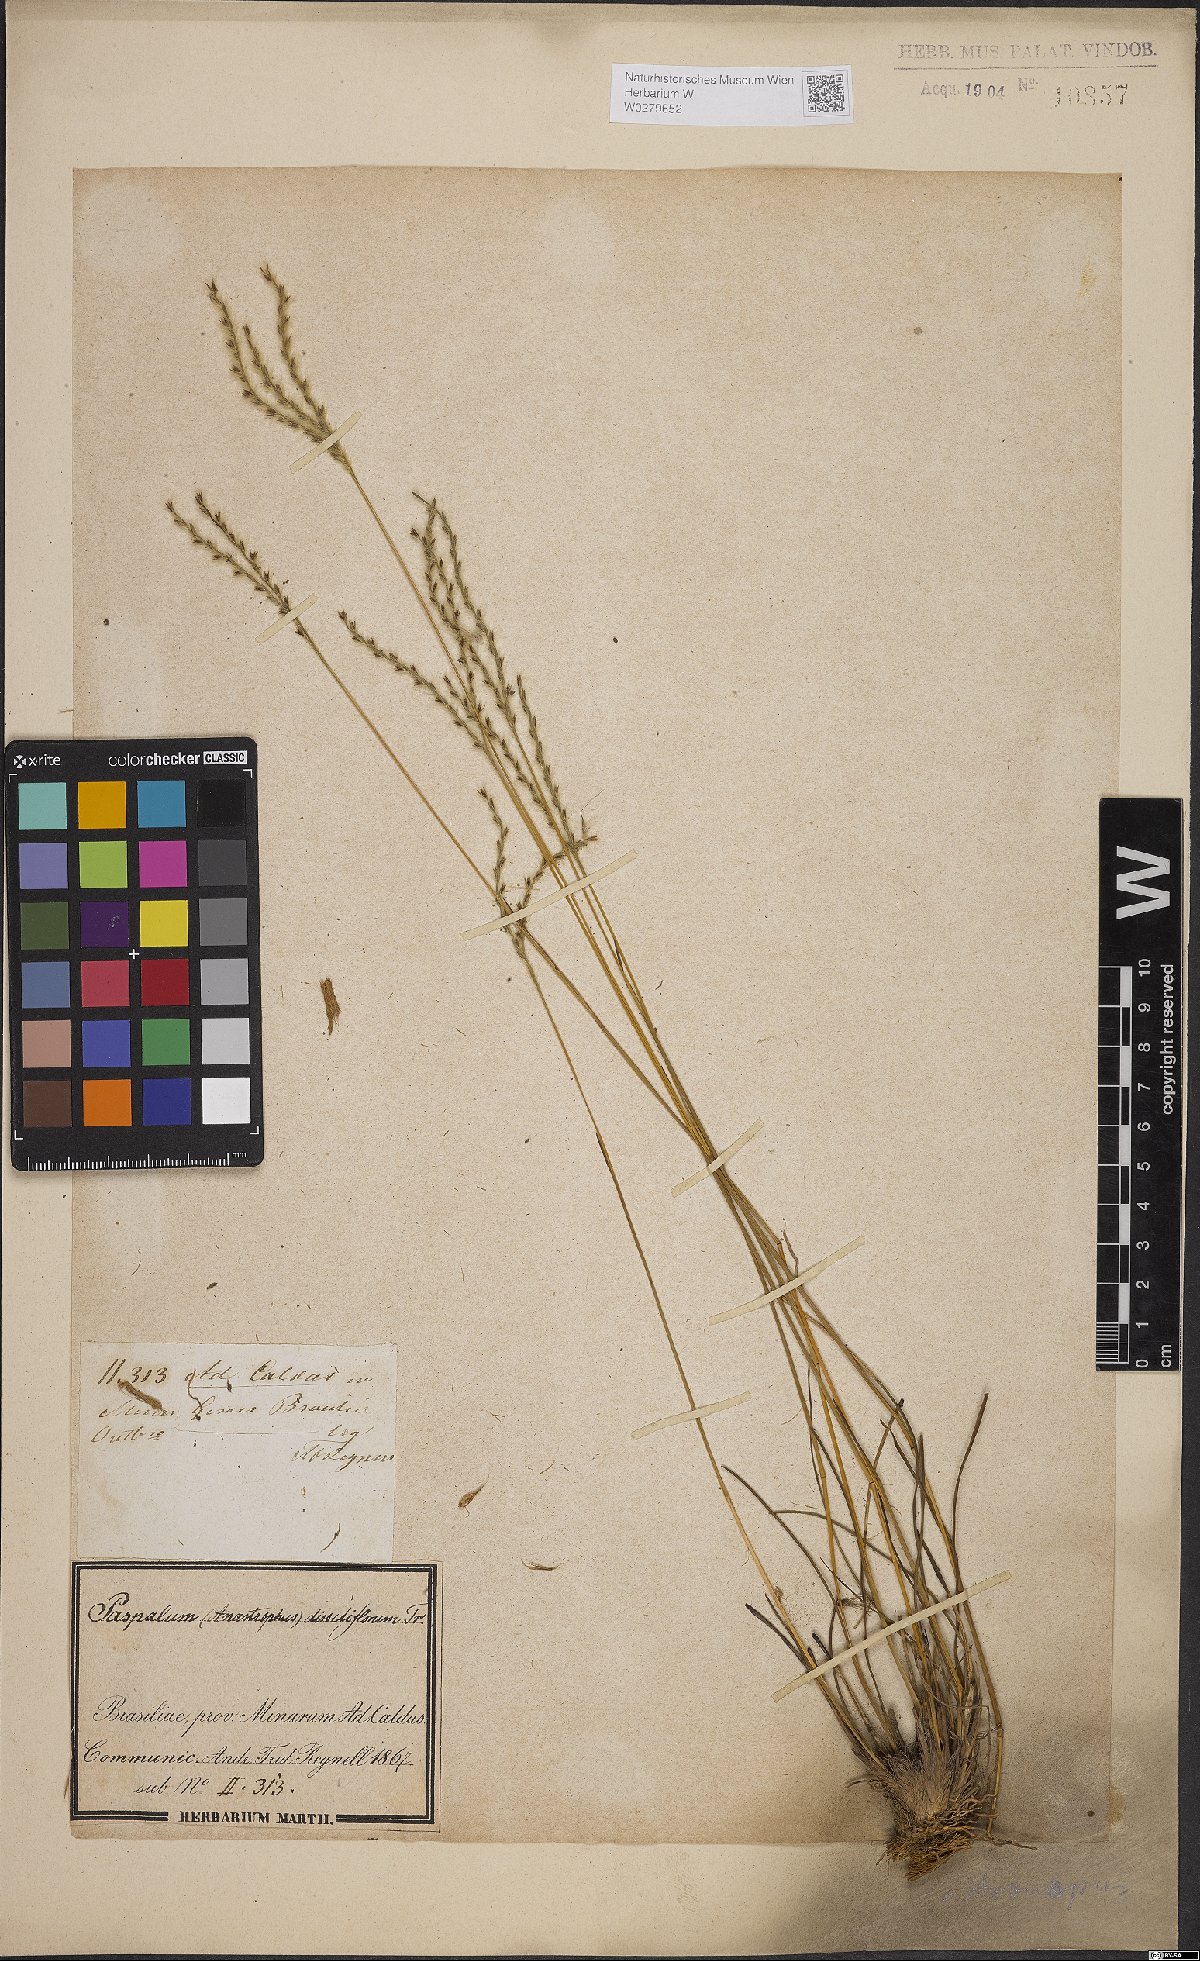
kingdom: Plantae
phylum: Tracheophyta
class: Liliopsida
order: Poales
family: Poaceae
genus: Axonopus
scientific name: Axonopus brasiliensis
